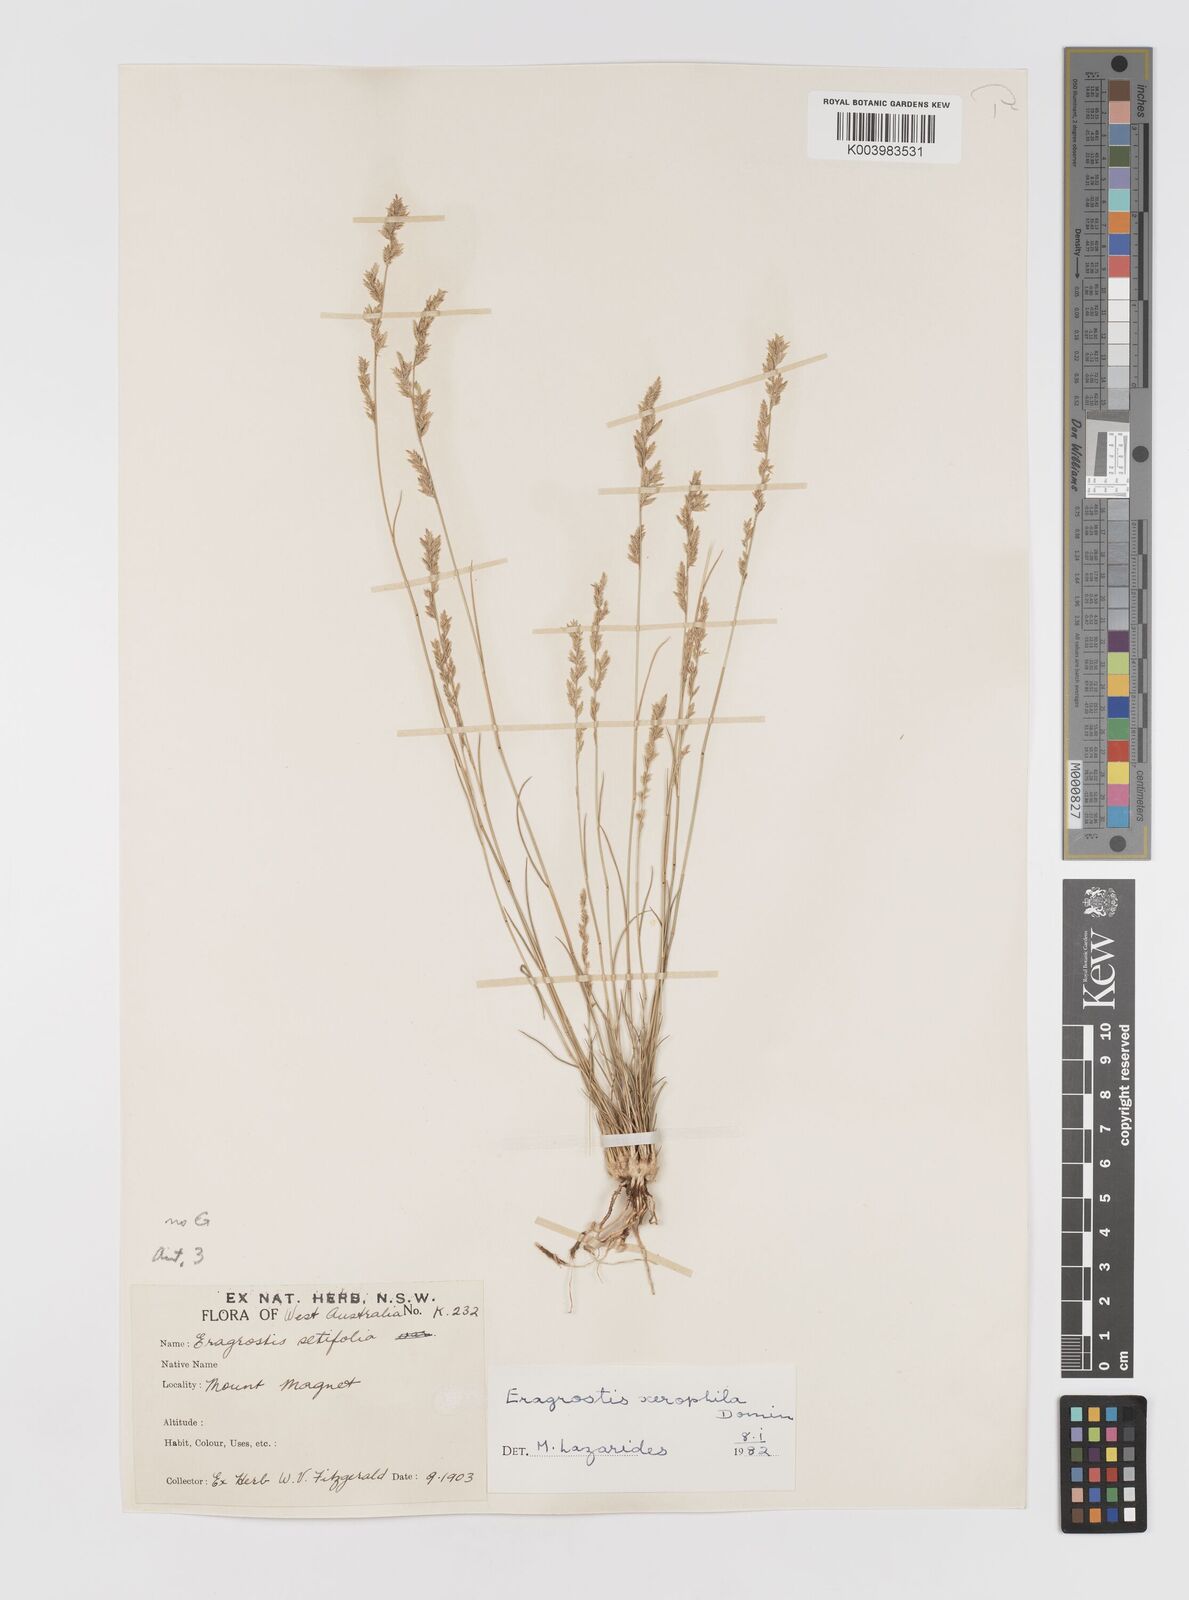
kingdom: Plantae
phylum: Tracheophyta
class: Liliopsida
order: Poales
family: Poaceae
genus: Eragrostis
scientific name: Eragrostis xerophila
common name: Wire wandarrie grass
